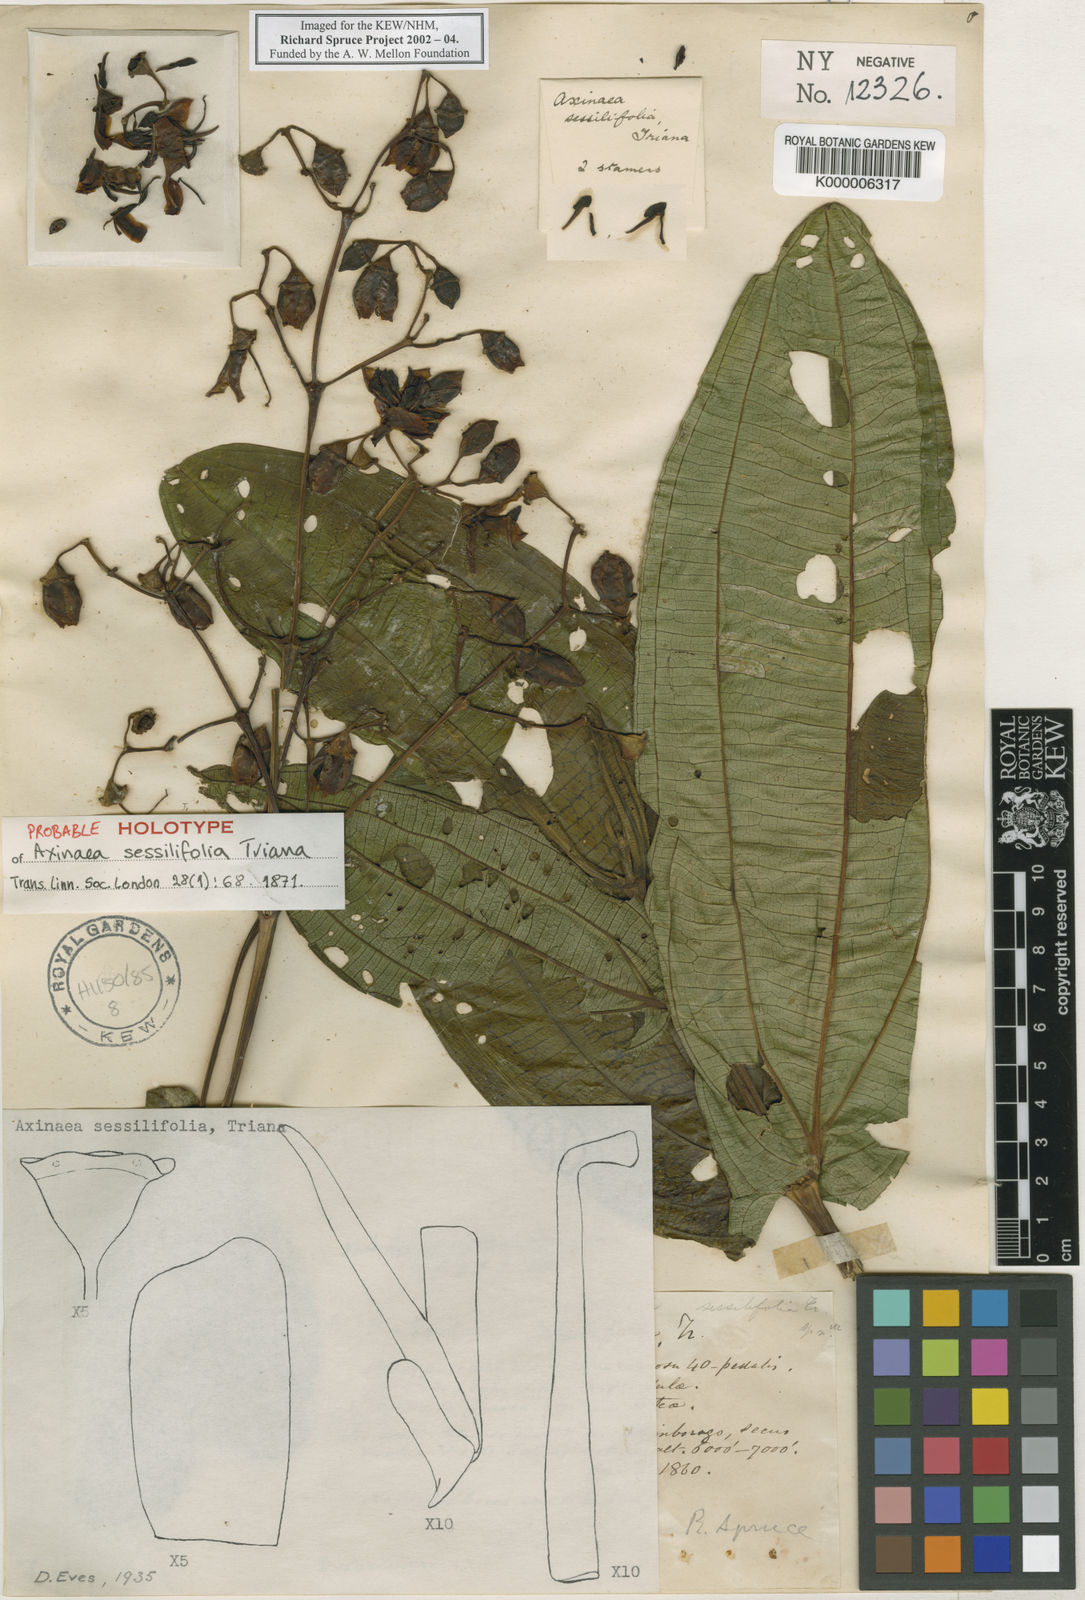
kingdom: Plantae
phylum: Tracheophyta
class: Magnoliopsida
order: Myrtales
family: Melastomataceae
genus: Axinaea
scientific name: Axinaea sessilifolia
